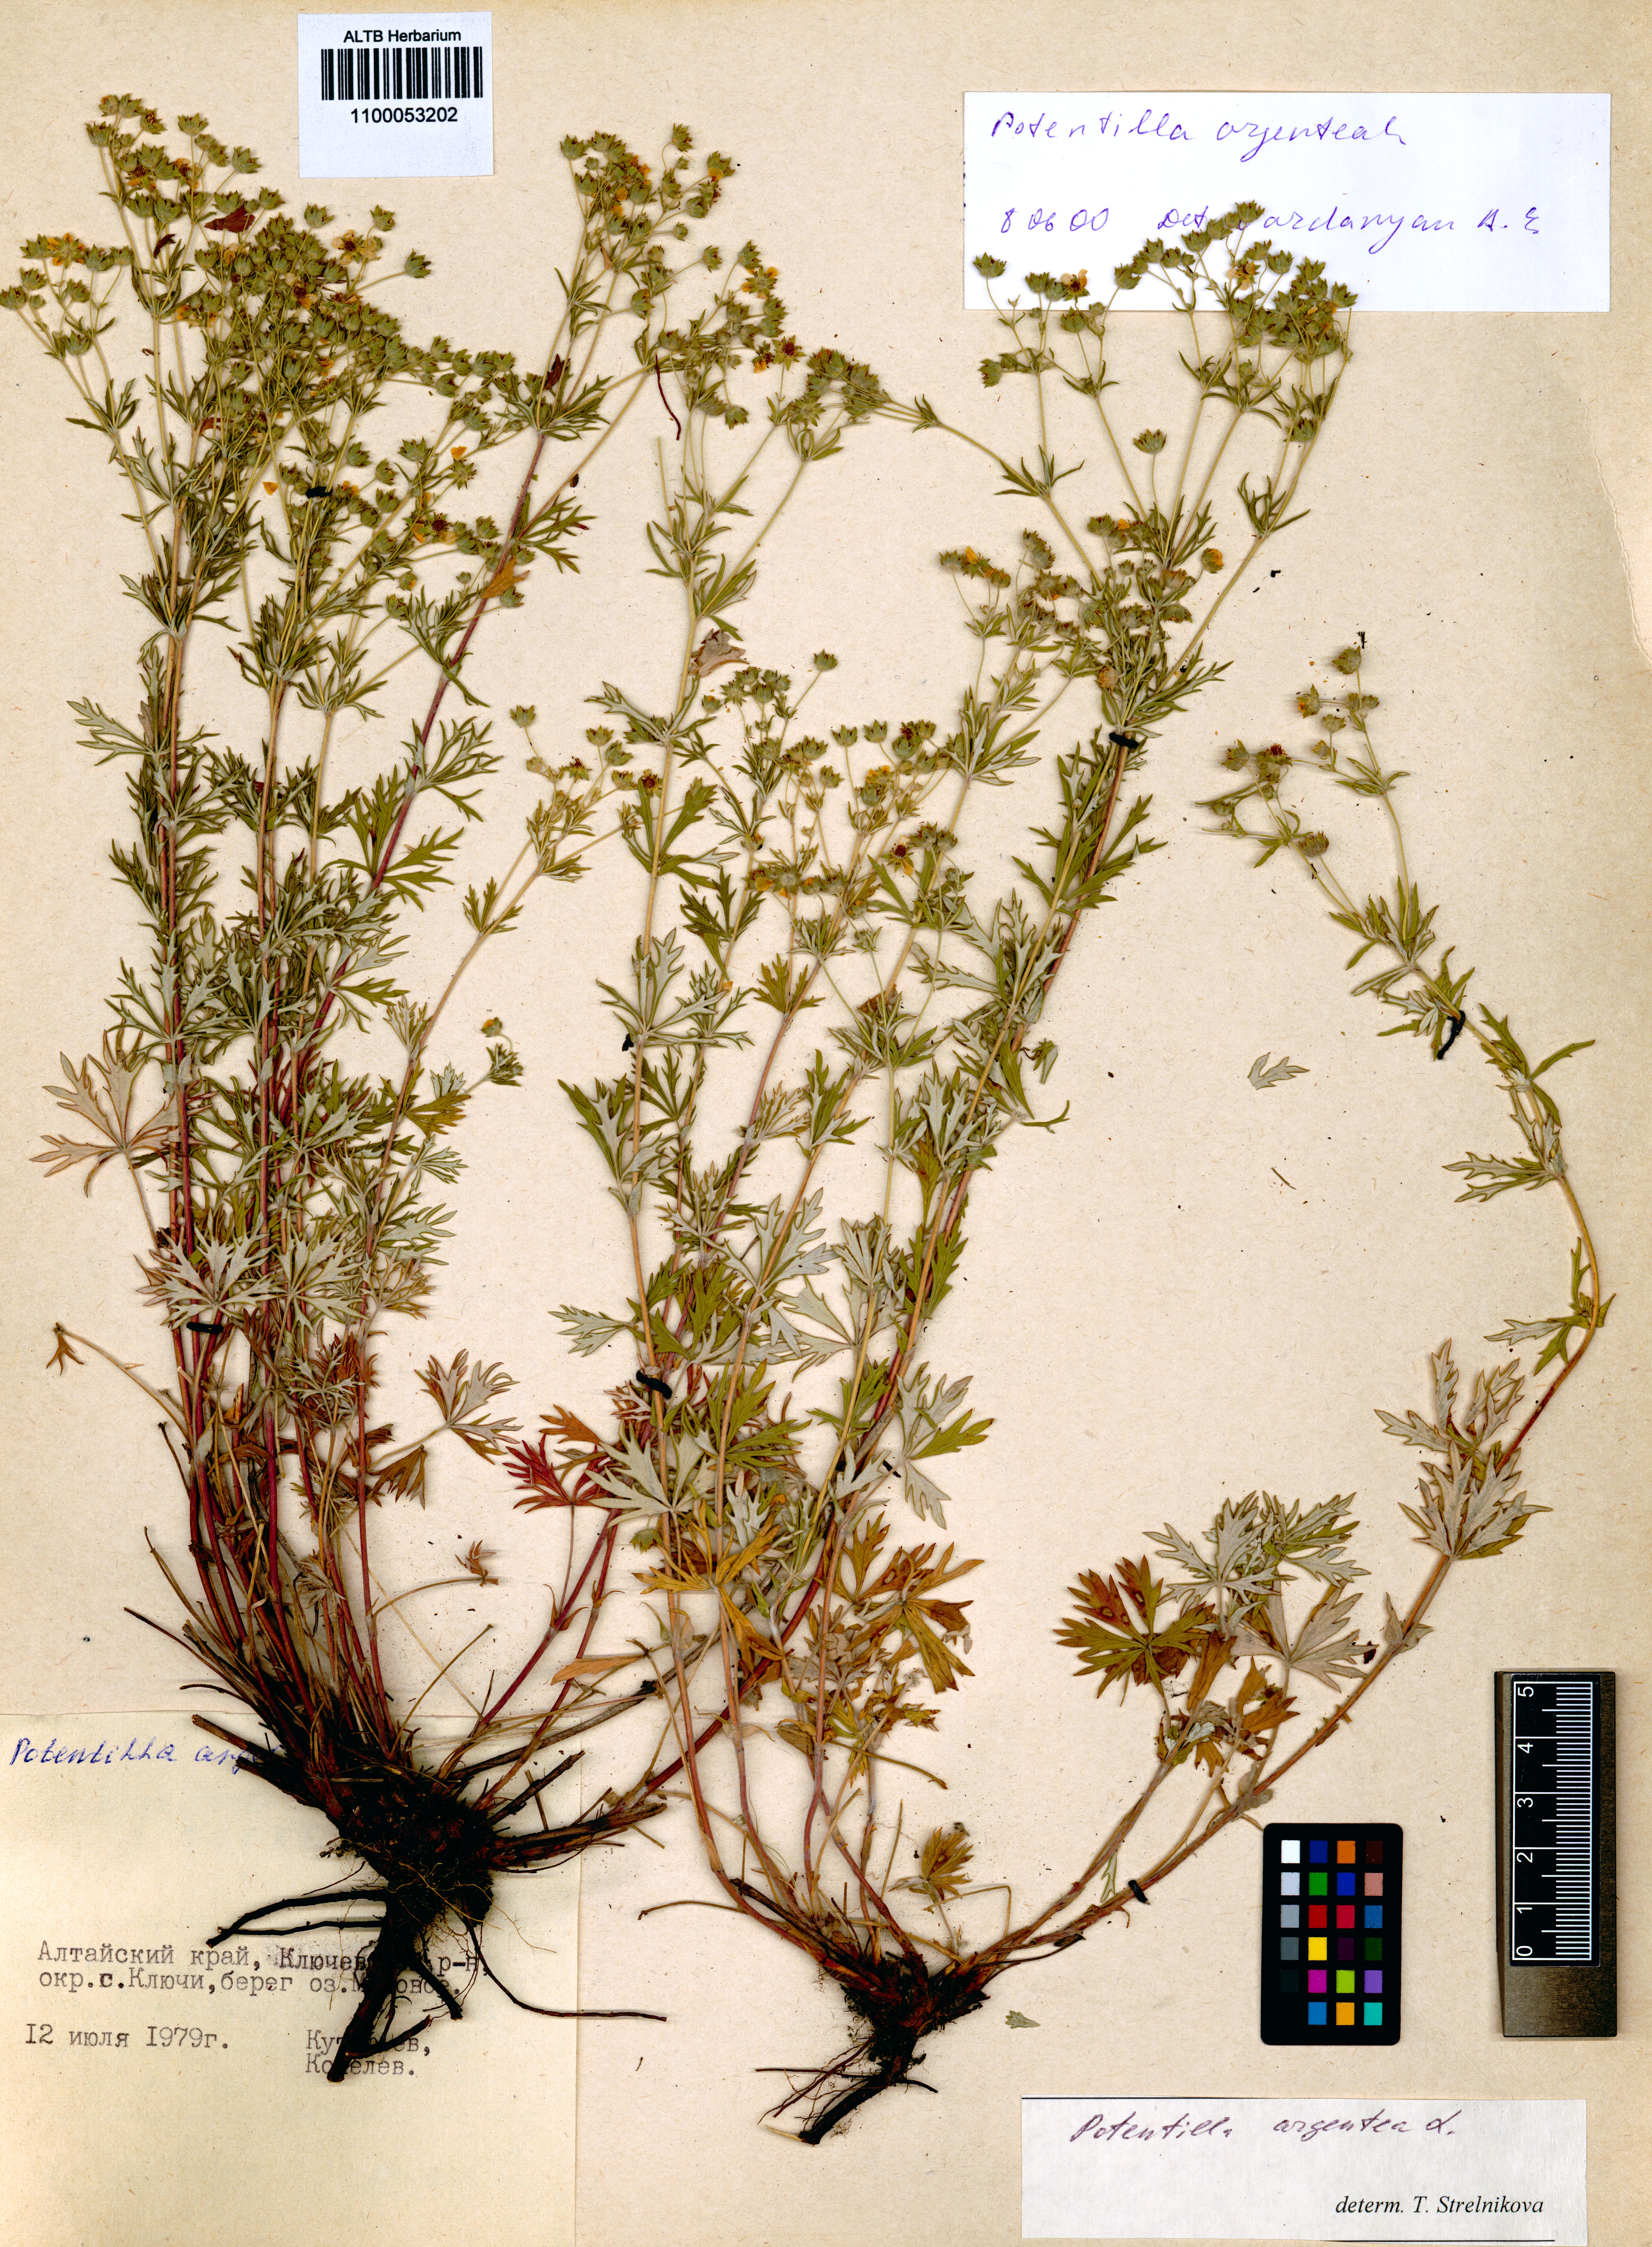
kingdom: Plantae
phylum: Tracheophyta
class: Magnoliopsida
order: Rosales
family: Rosaceae
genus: Potentilla
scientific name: Potentilla argentea
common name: Hoary cinquefoil
